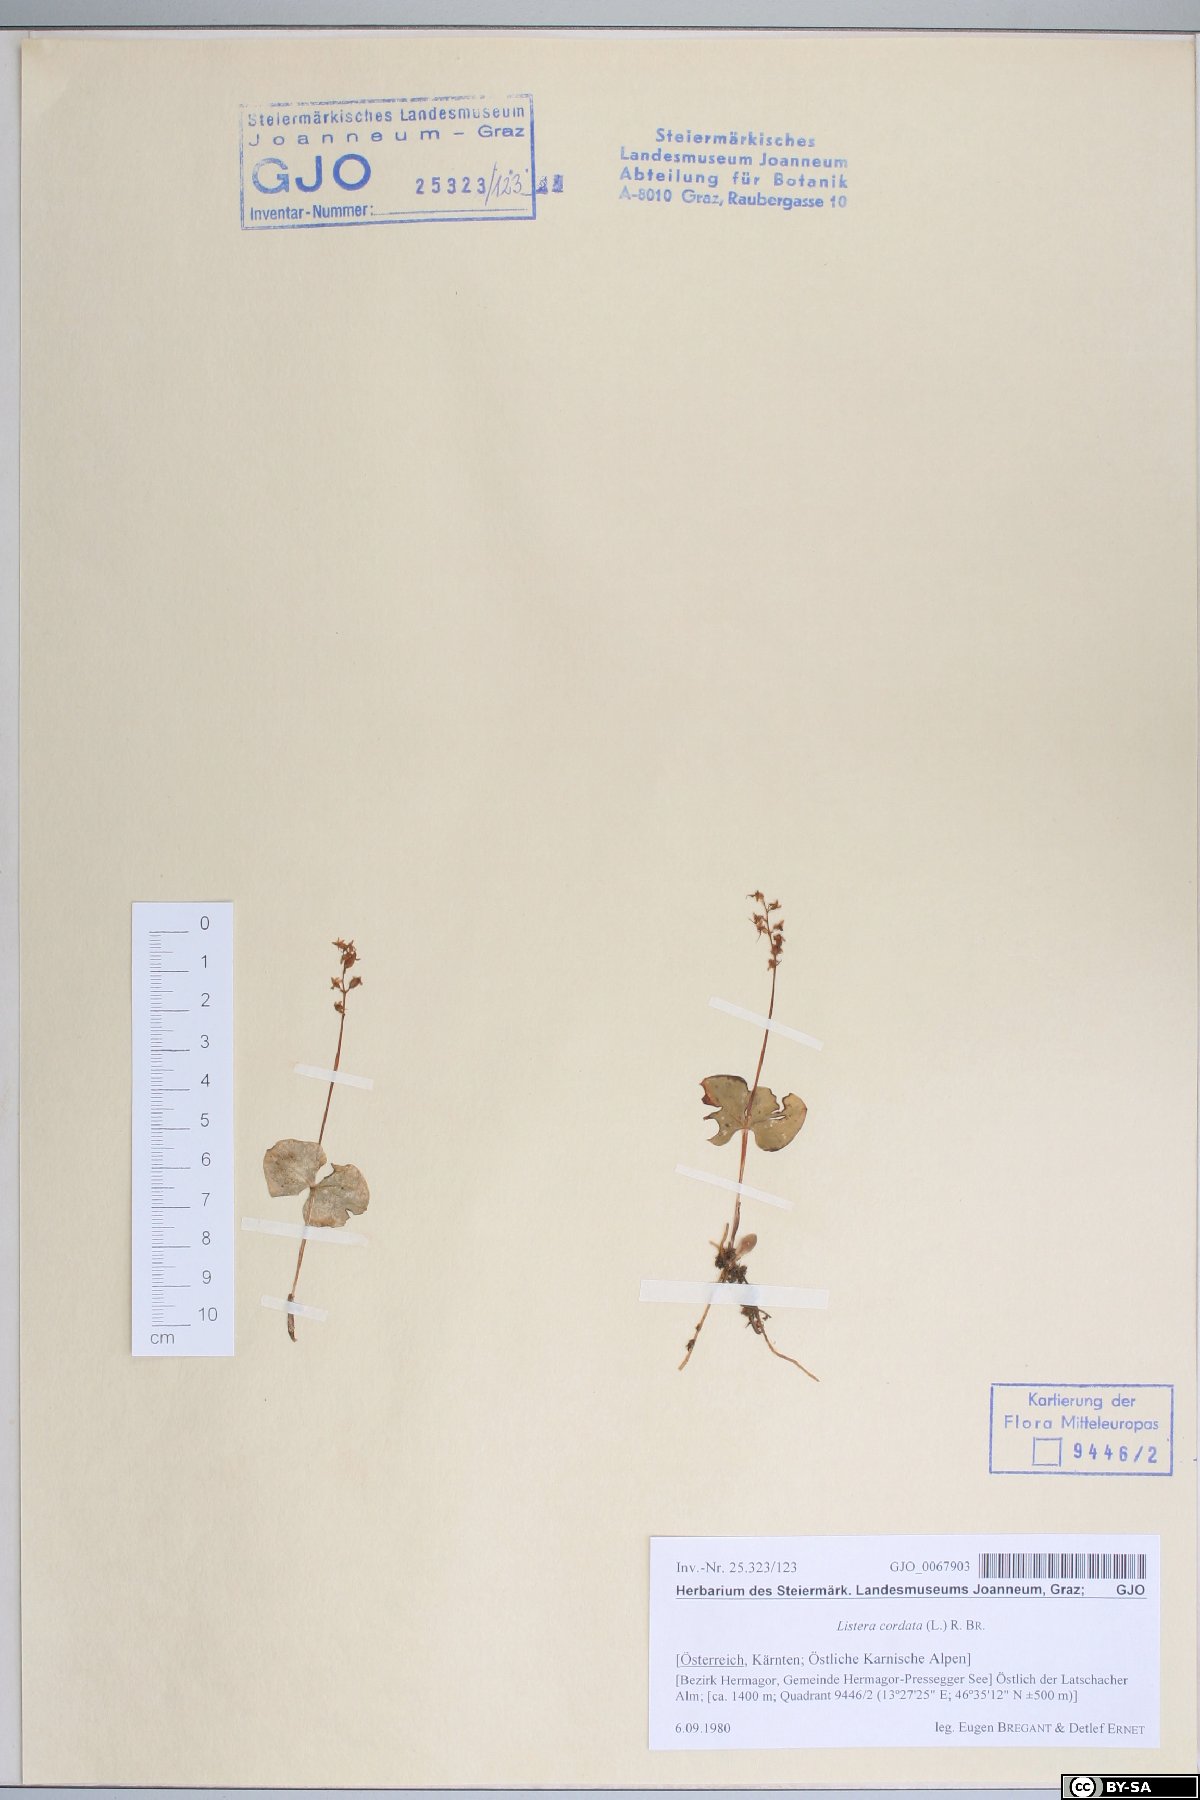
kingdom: Plantae
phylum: Tracheophyta
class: Liliopsida
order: Asparagales
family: Orchidaceae
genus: Neottia
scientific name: Neottia cordata
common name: Lesser twayblade
